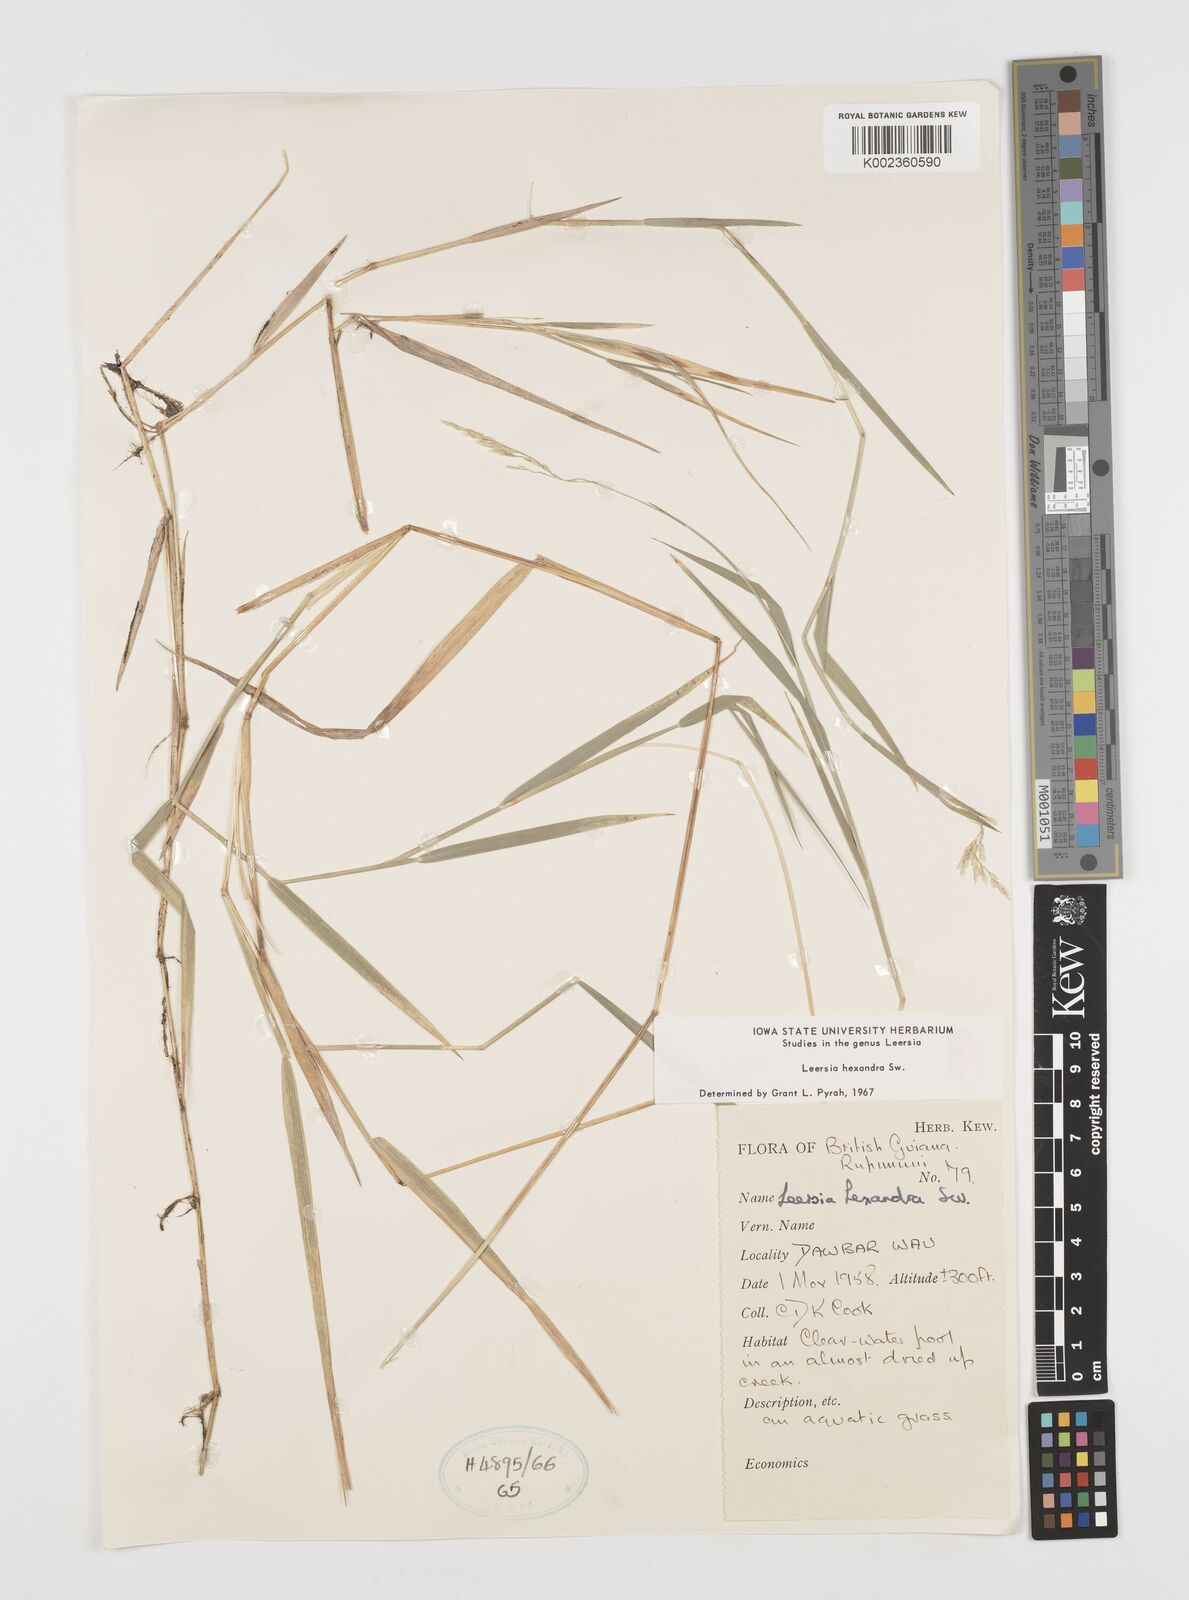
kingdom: Plantae
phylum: Tracheophyta
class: Liliopsida
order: Poales
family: Poaceae
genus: Leersia
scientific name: Leersia hexandra
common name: Southern cut grass
